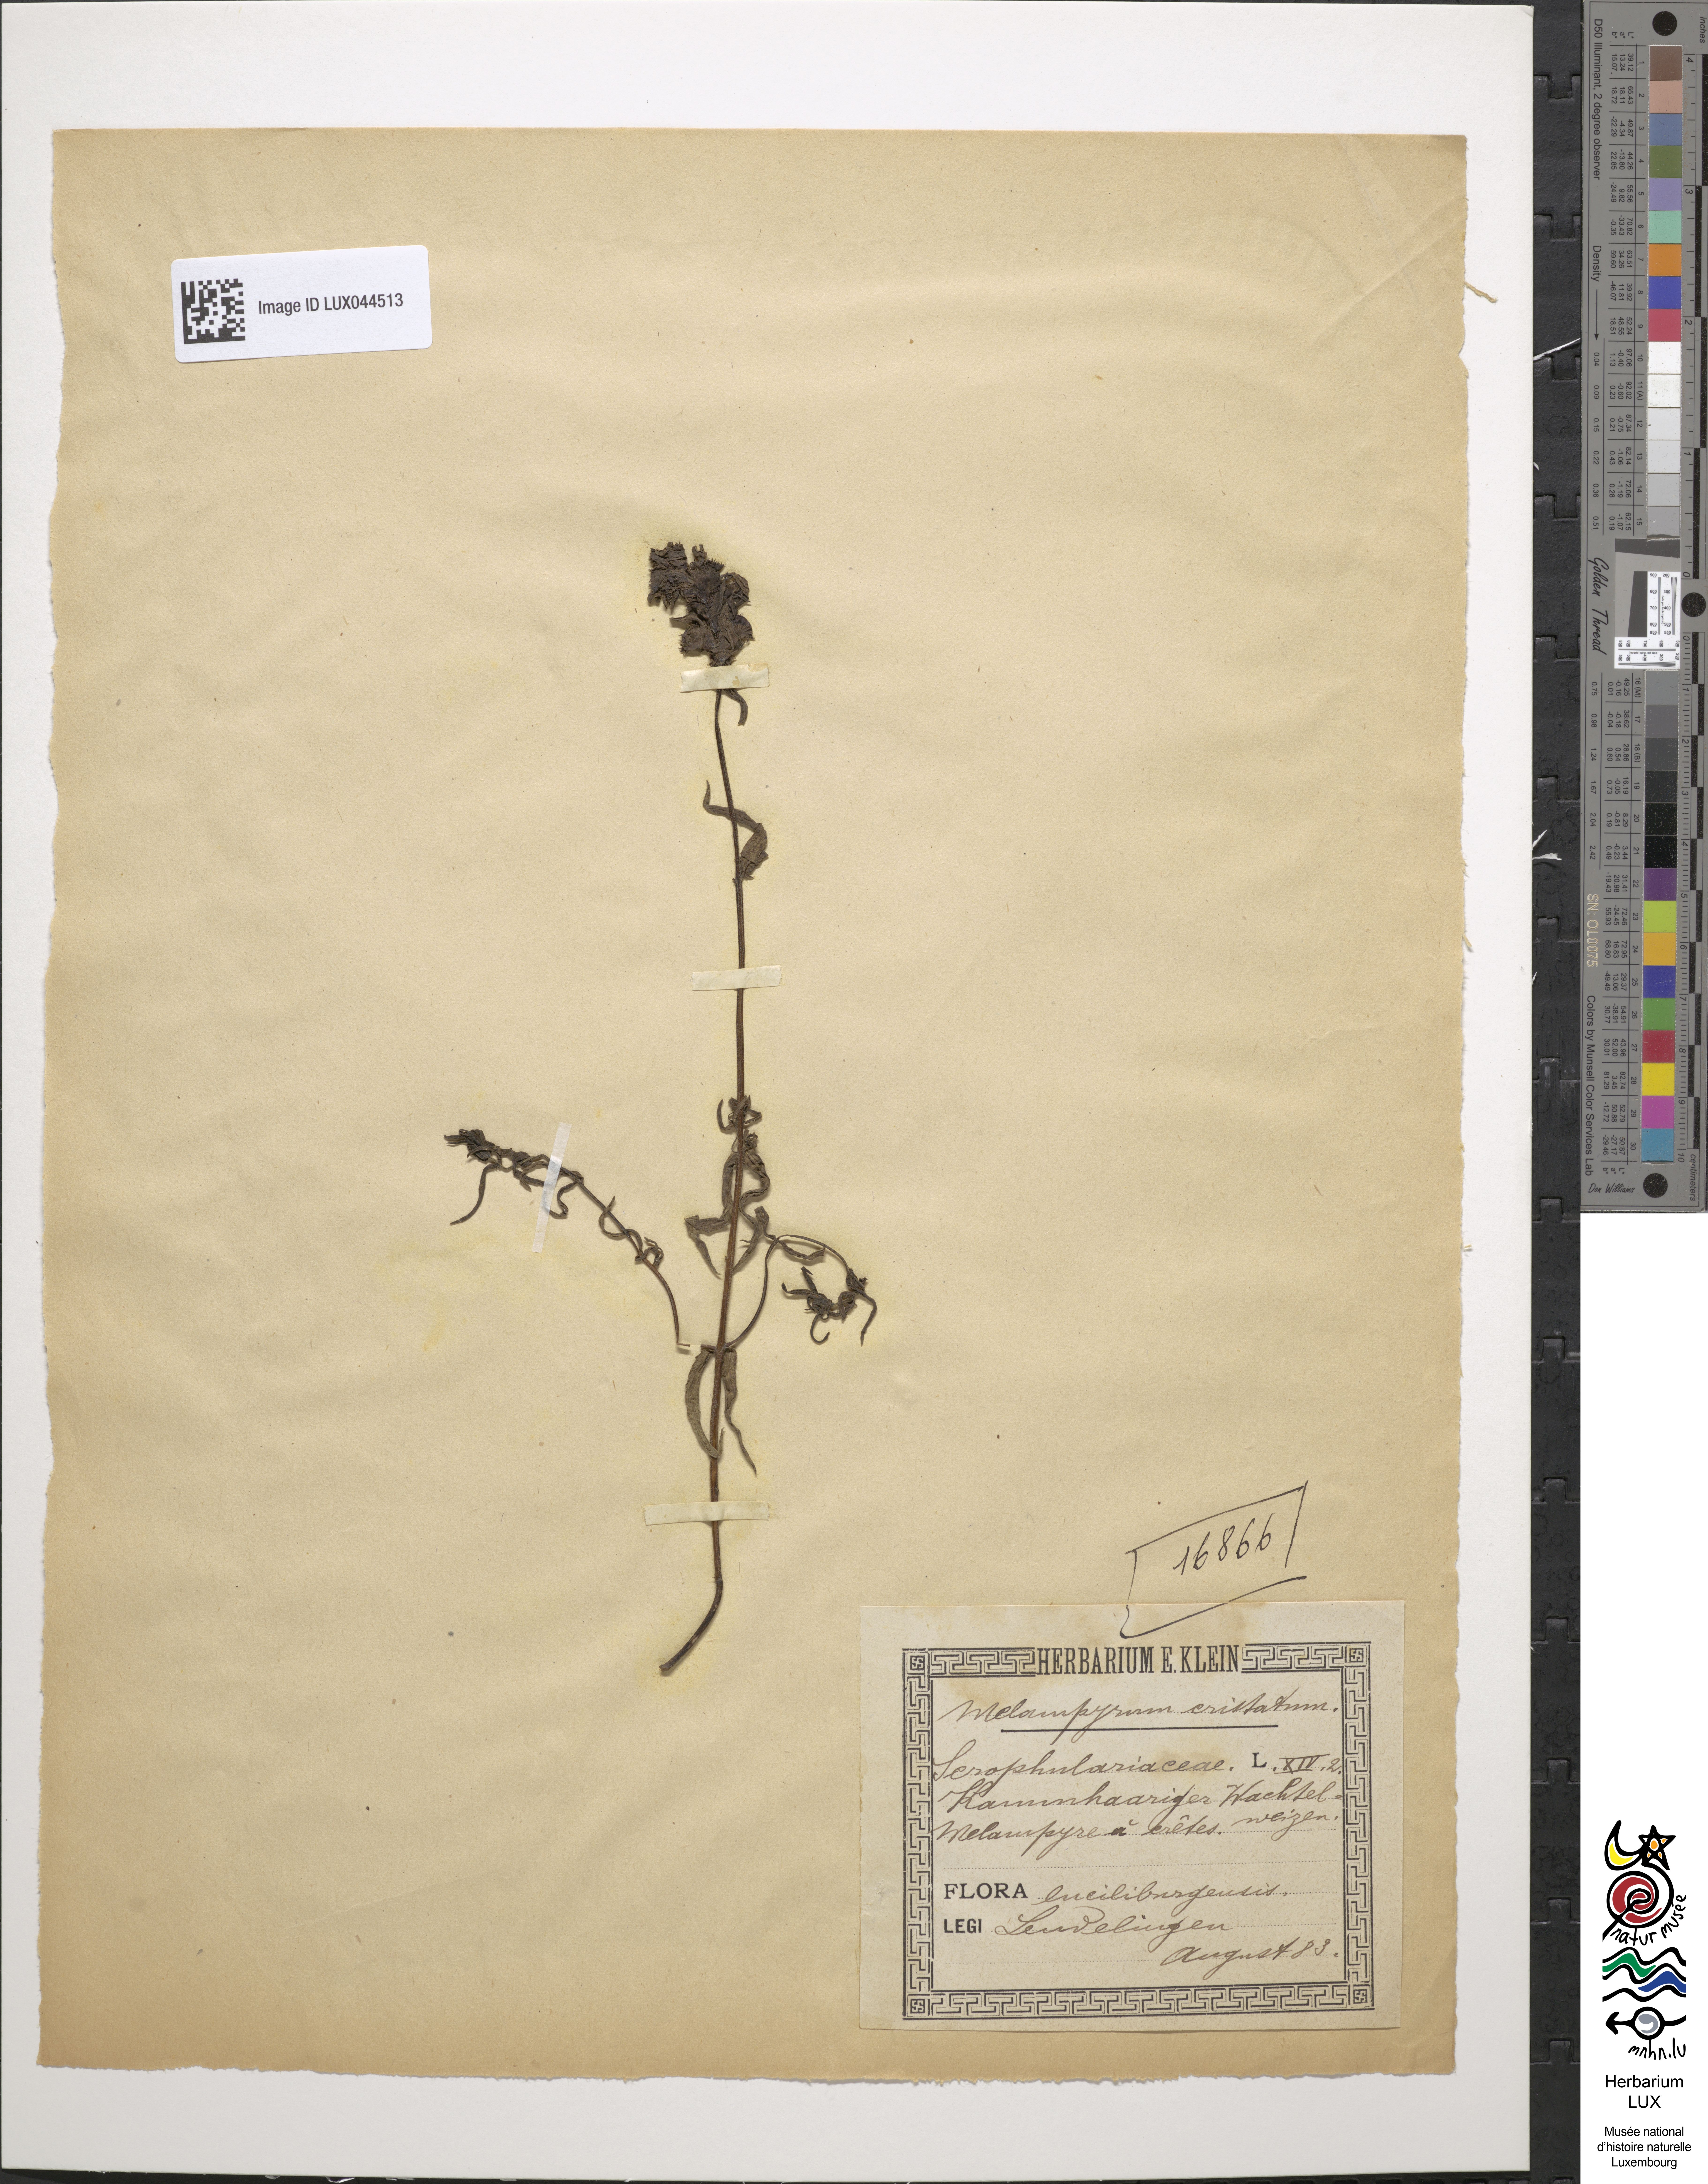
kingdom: Plantae
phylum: Tracheophyta
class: Magnoliopsida
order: Lamiales
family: Orobanchaceae
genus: Melampyrum
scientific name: Melampyrum cristatum
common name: Crested cow-wheat
